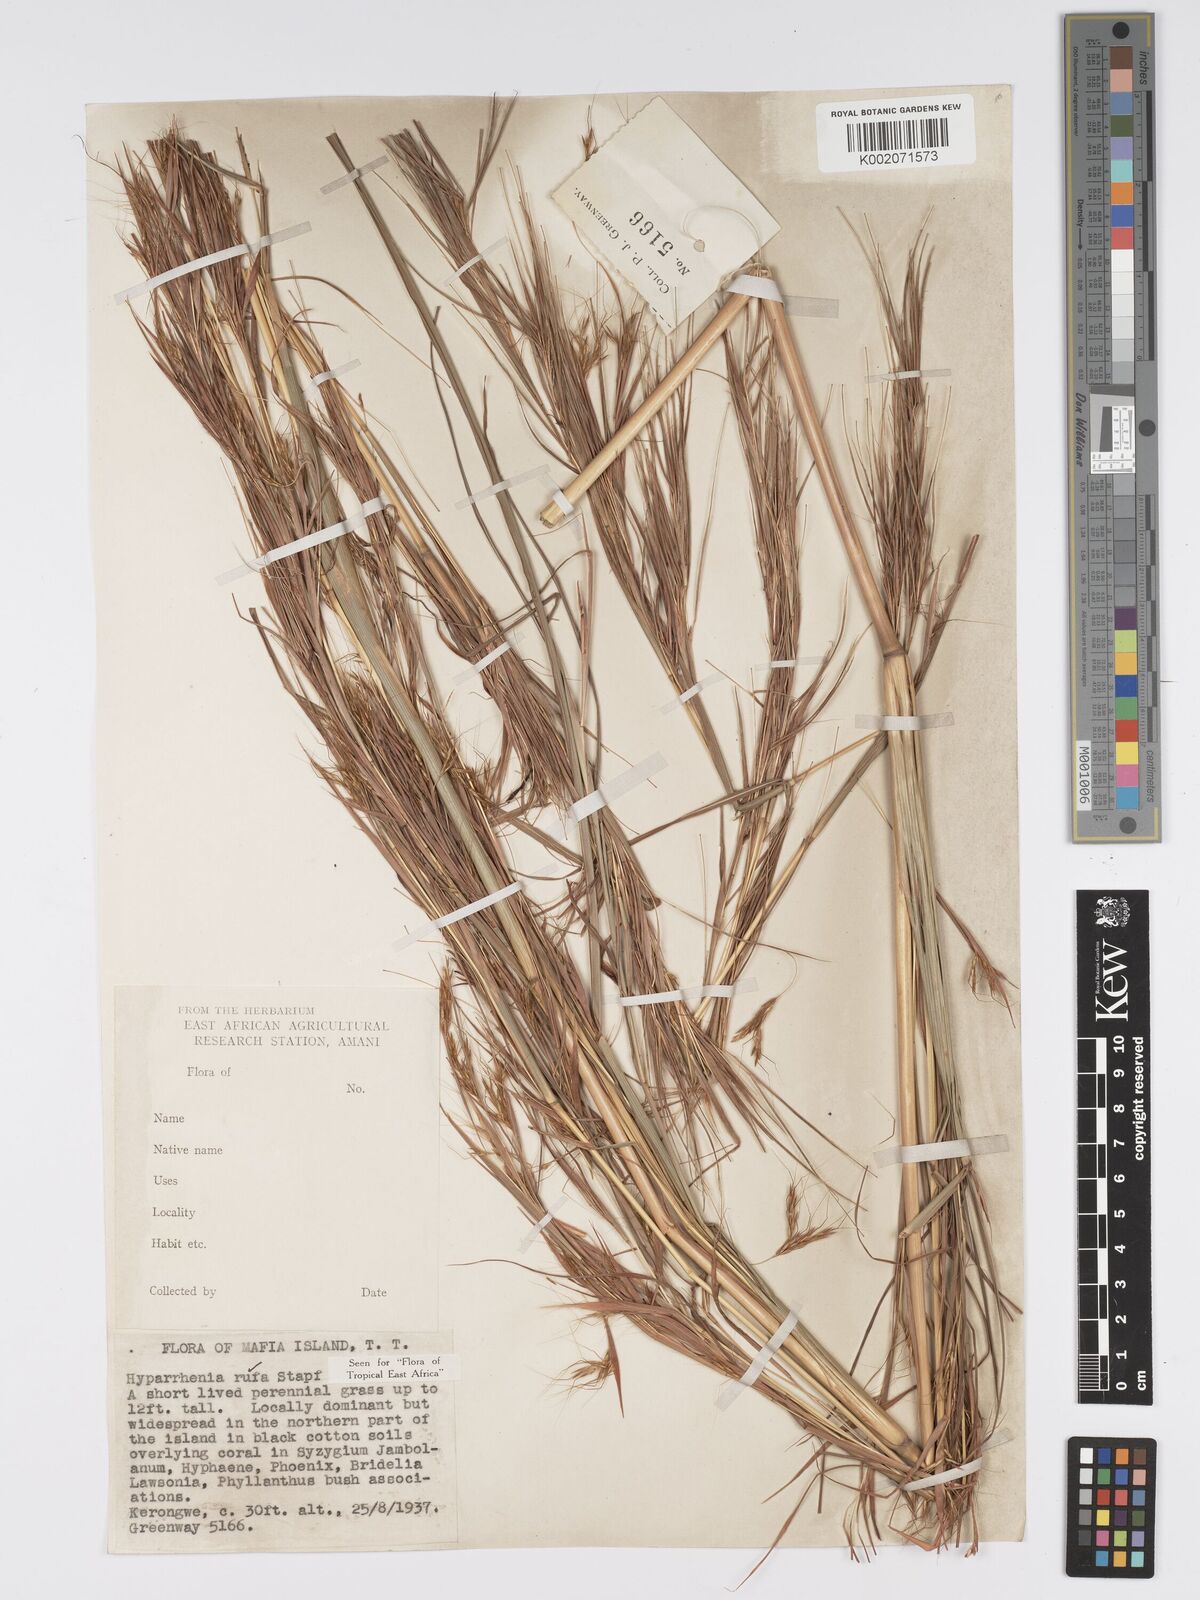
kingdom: Plantae
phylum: Tracheophyta
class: Liliopsida
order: Poales
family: Poaceae
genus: Hyparrhenia
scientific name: Hyparrhenia rufa
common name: Jaraguagrass
